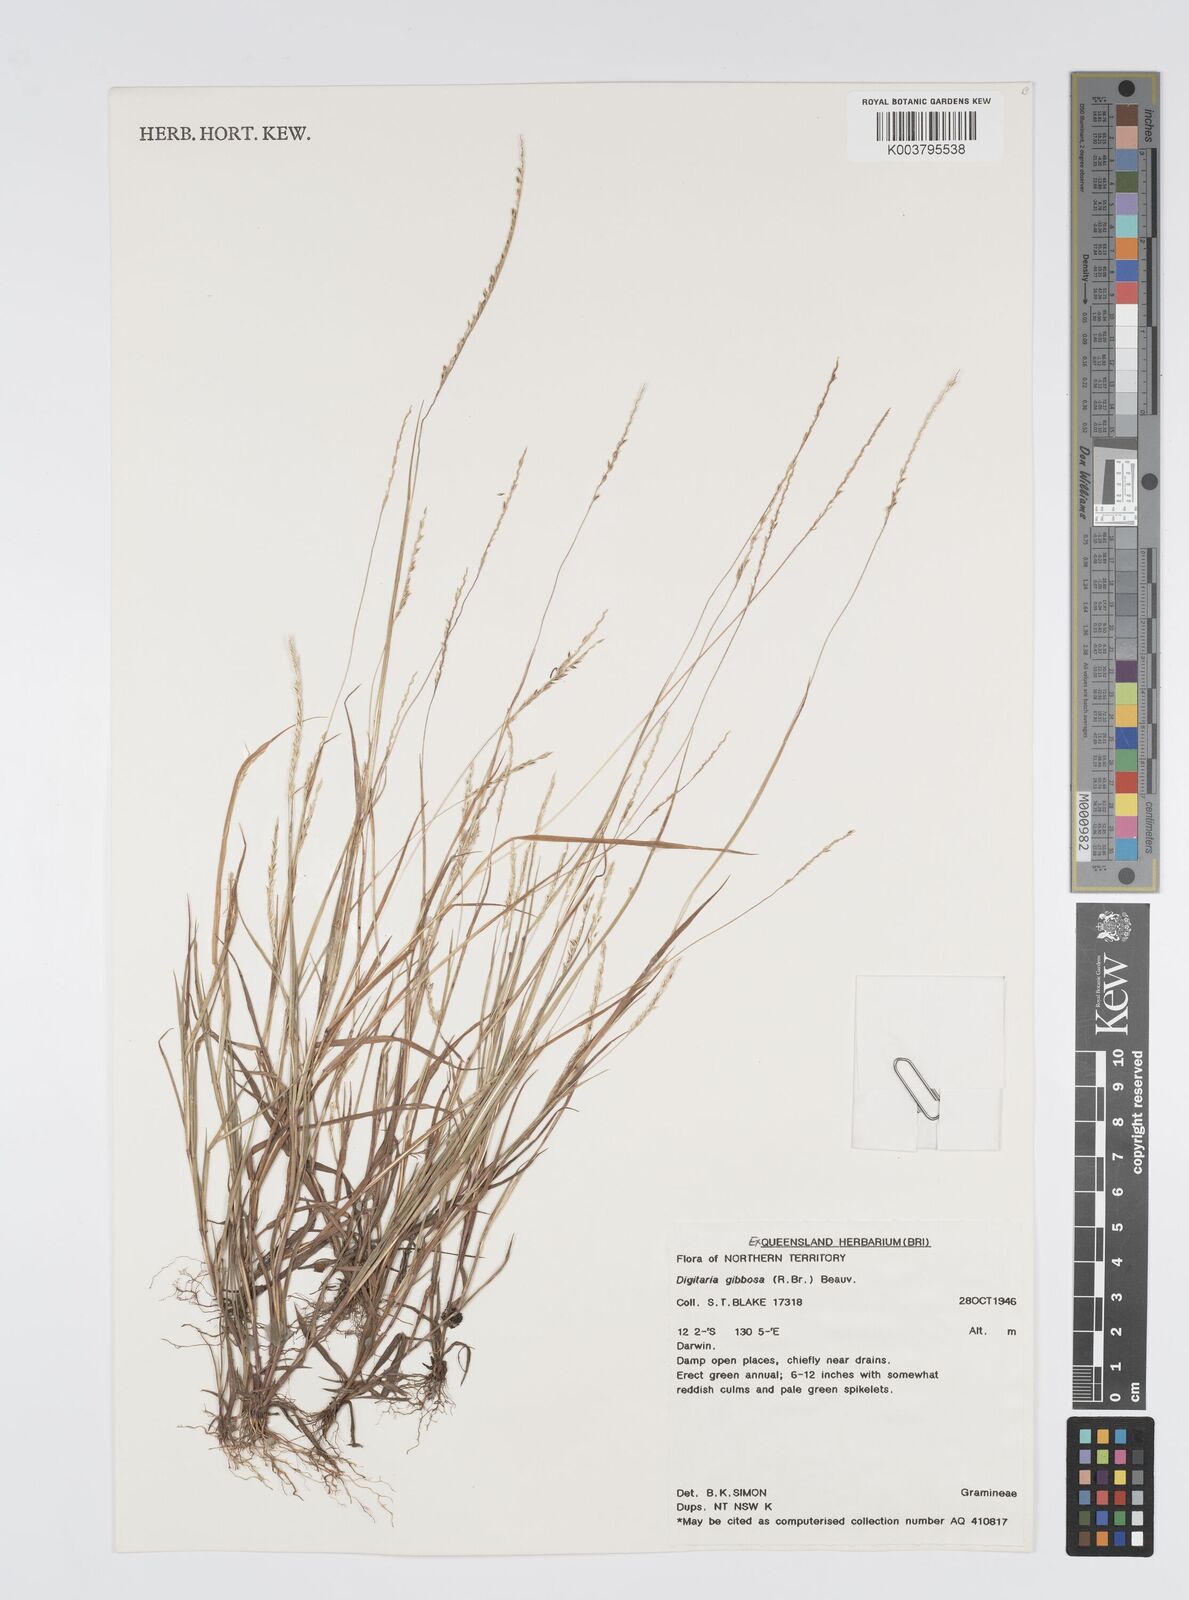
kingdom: Plantae
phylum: Tracheophyta
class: Liliopsida
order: Poales
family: Poaceae
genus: Digitaria
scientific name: Digitaria gibbosa
